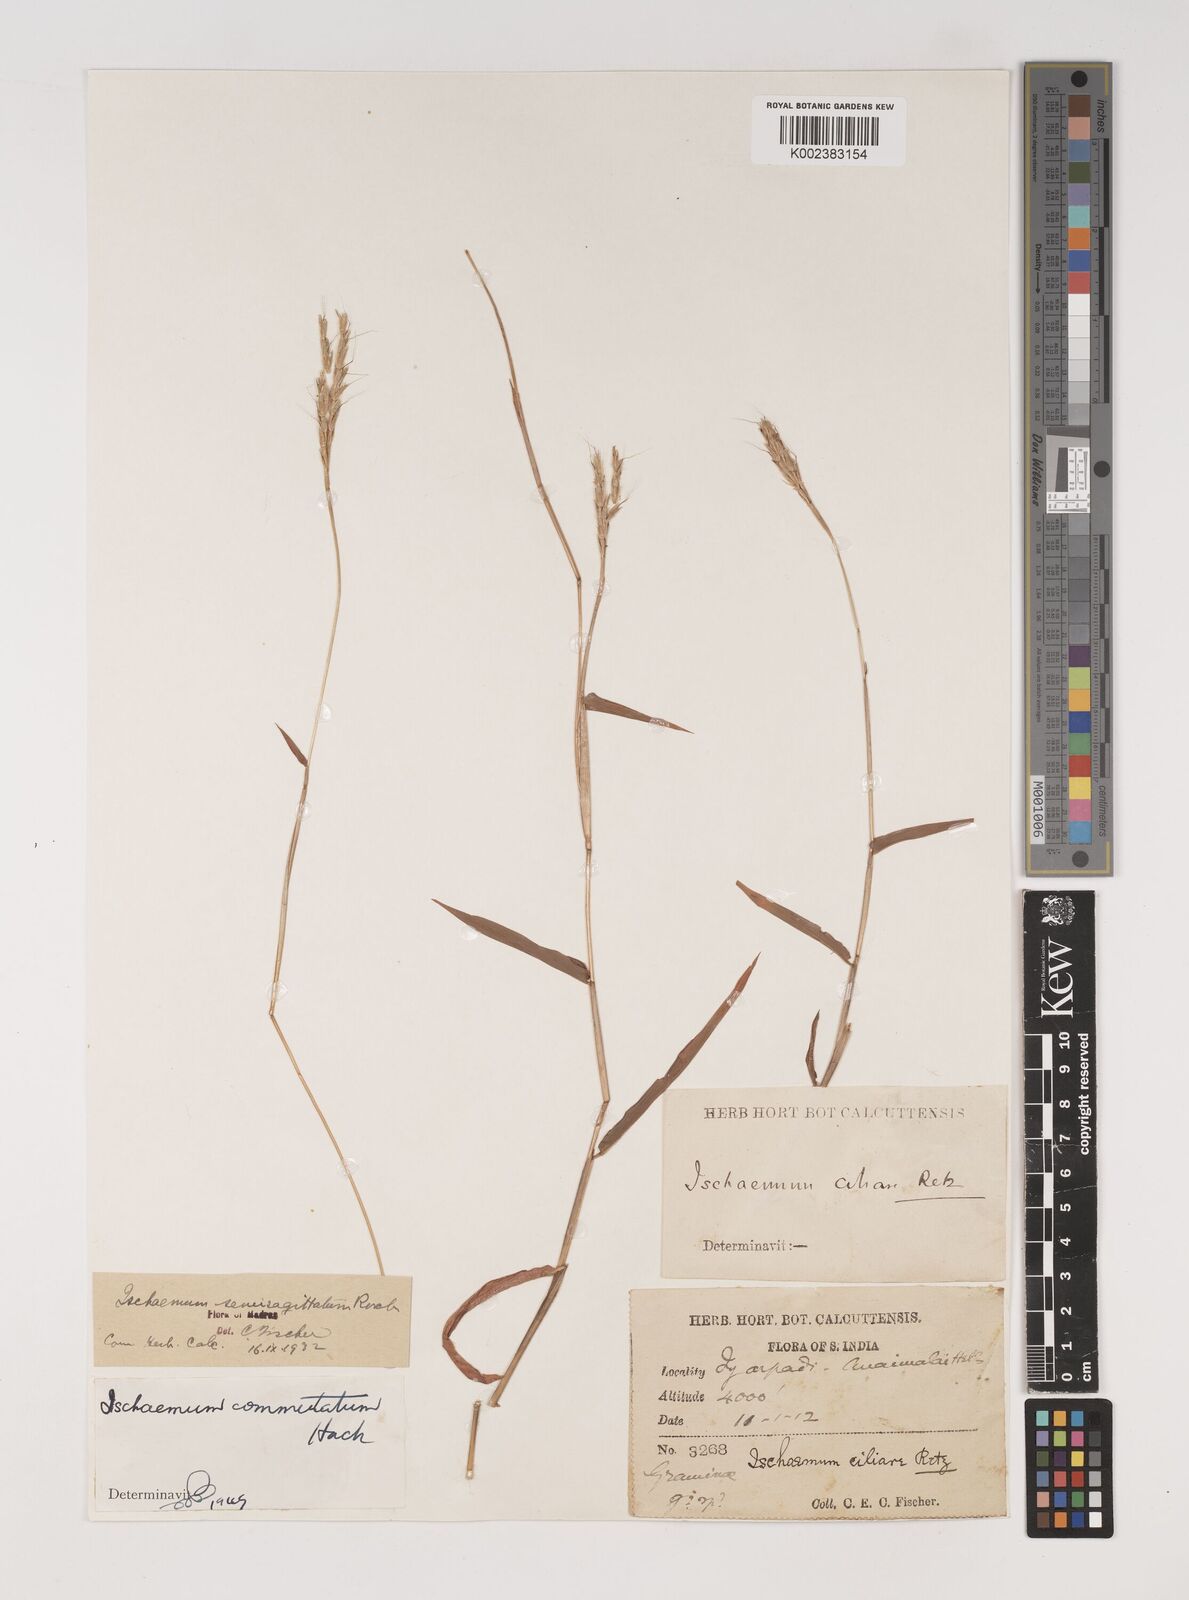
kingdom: Plantae
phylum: Tracheophyta
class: Liliopsida
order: Poales
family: Poaceae
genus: Ischaemum
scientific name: Ischaemum semisagittatum
